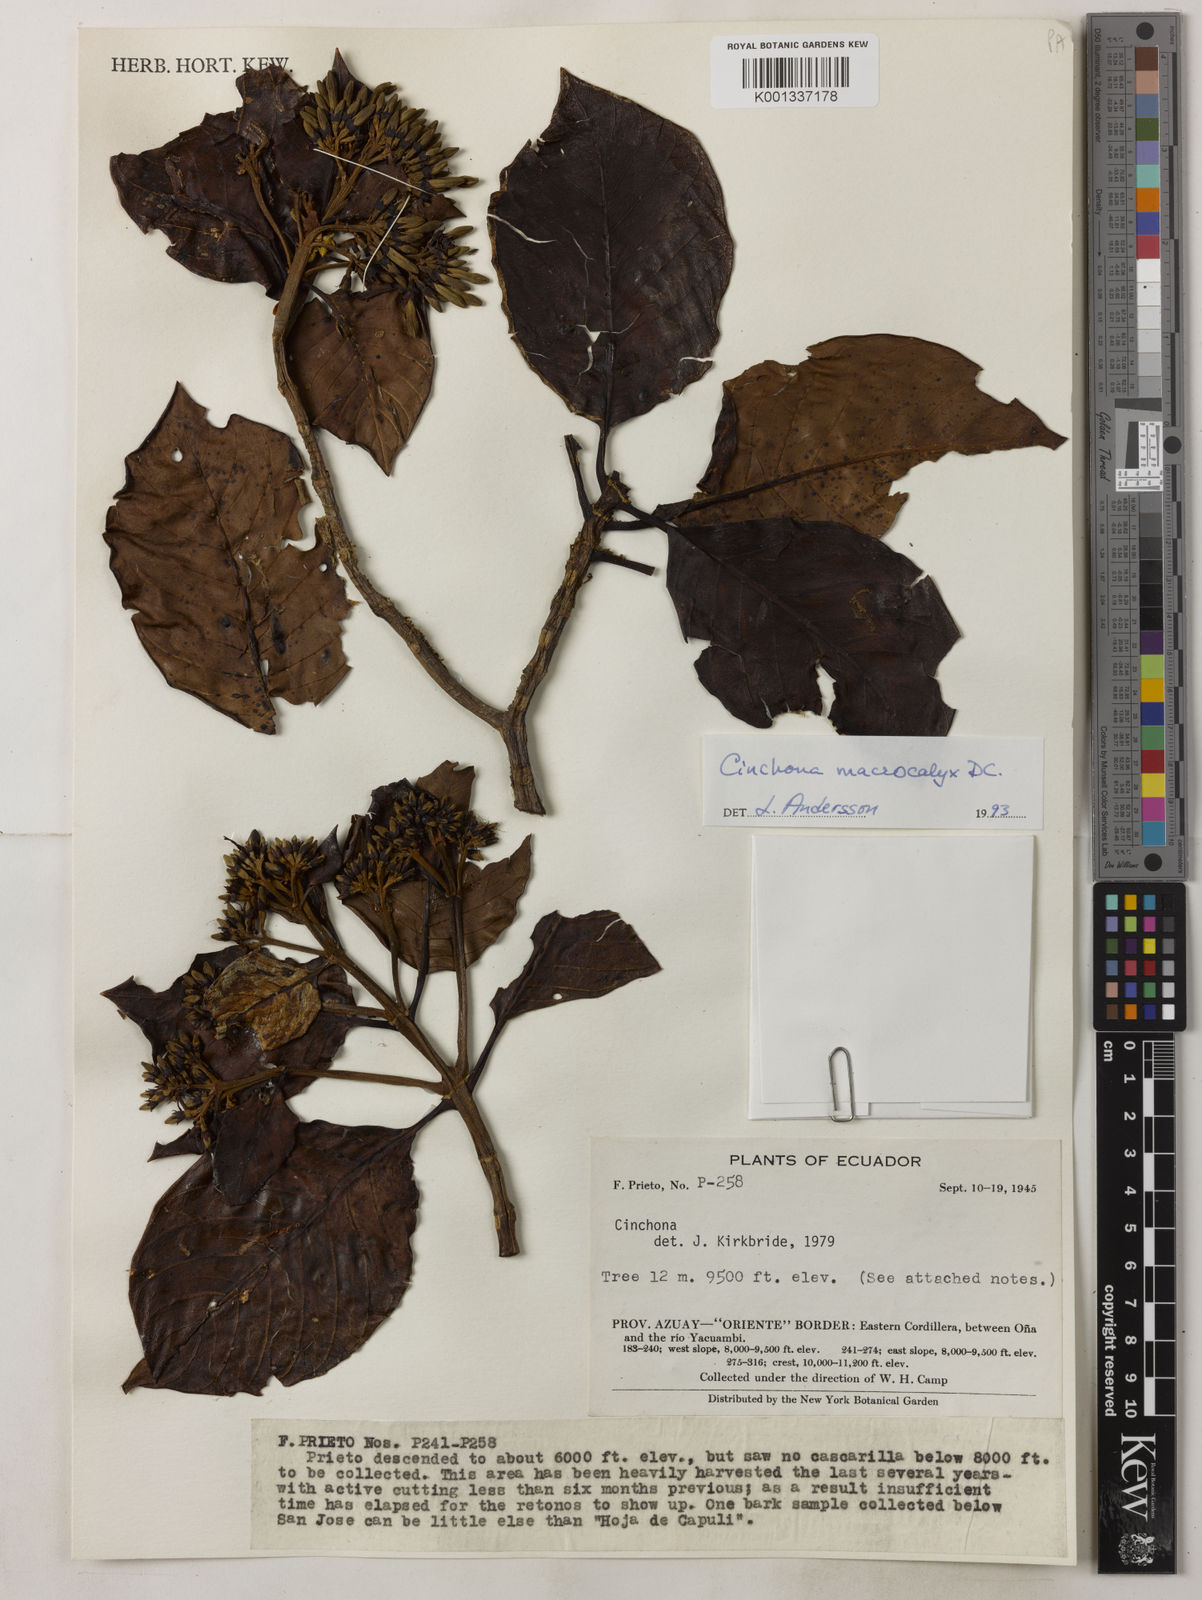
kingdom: Plantae
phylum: Tracheophyta
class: Magnoliopsida
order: Gentianales
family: Rubiaceae
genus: Cinchona
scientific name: Cinchona macrocalyx
